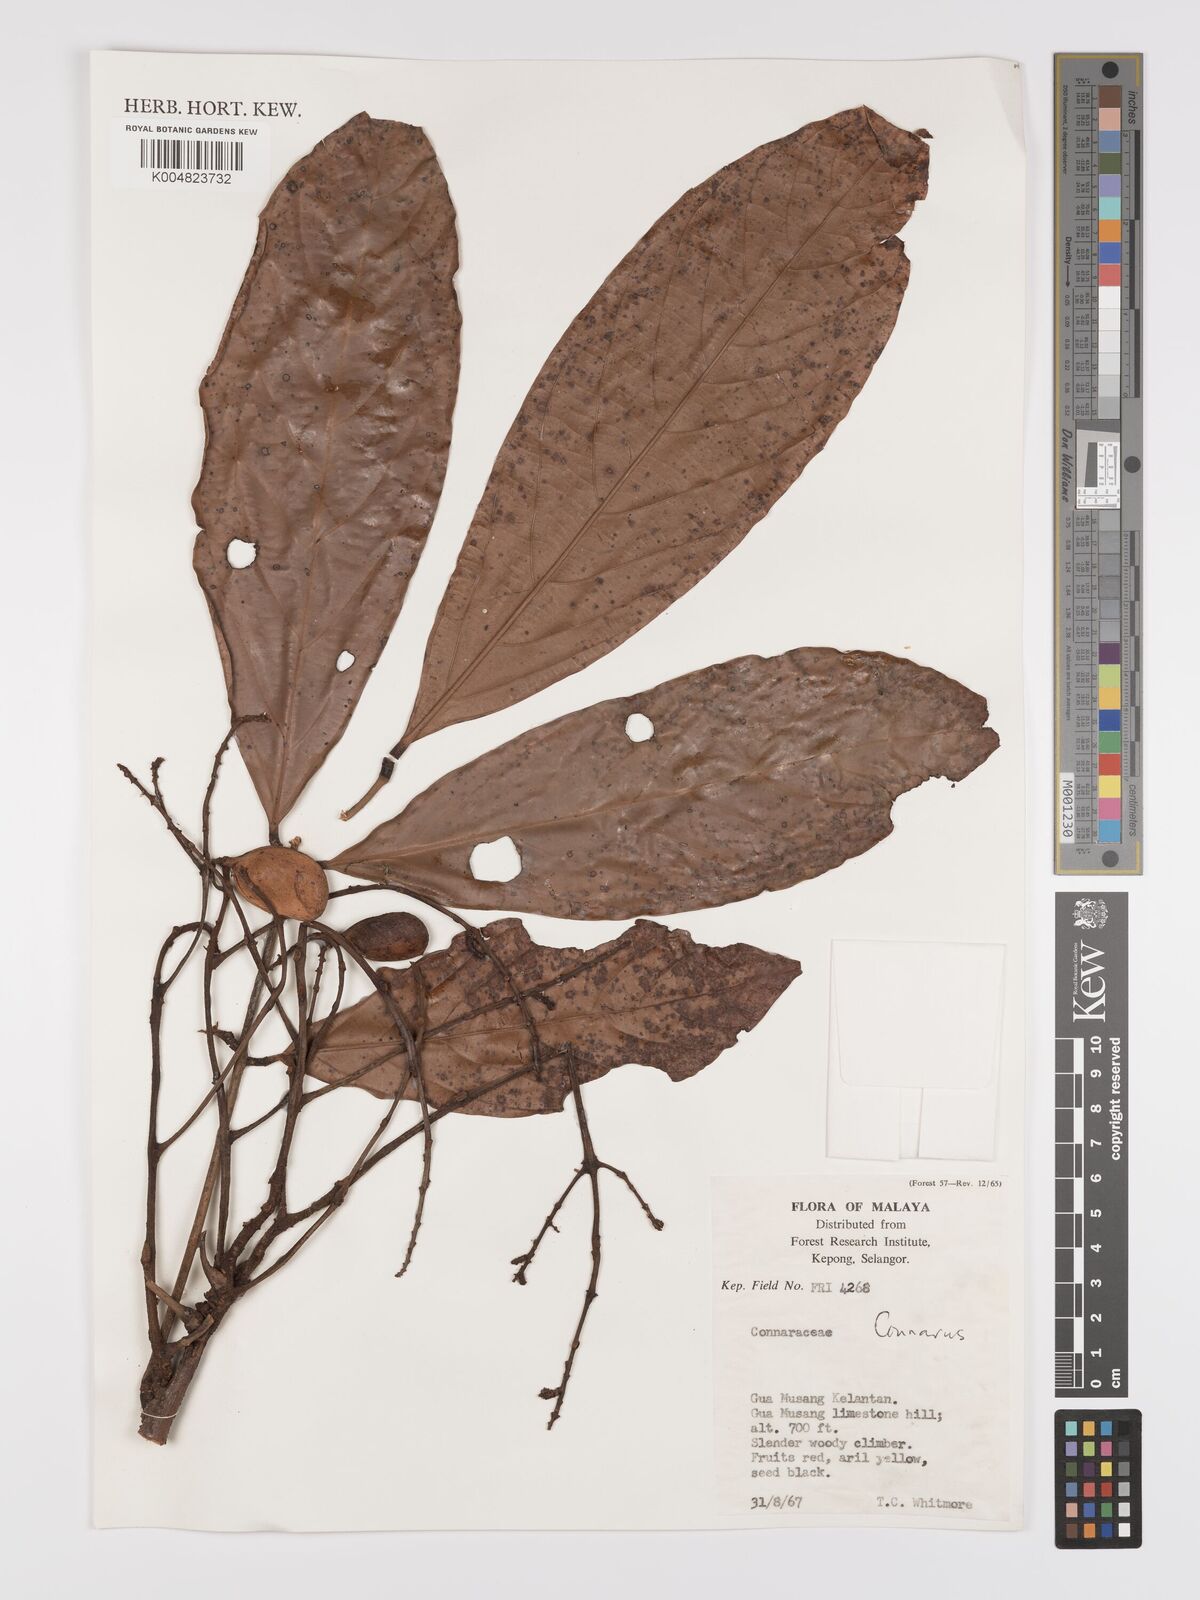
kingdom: Plantae
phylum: Tracheophyta
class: Magnoliopsida
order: Oxalidales
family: Connaraceae
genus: Connarus
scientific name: Connarus
